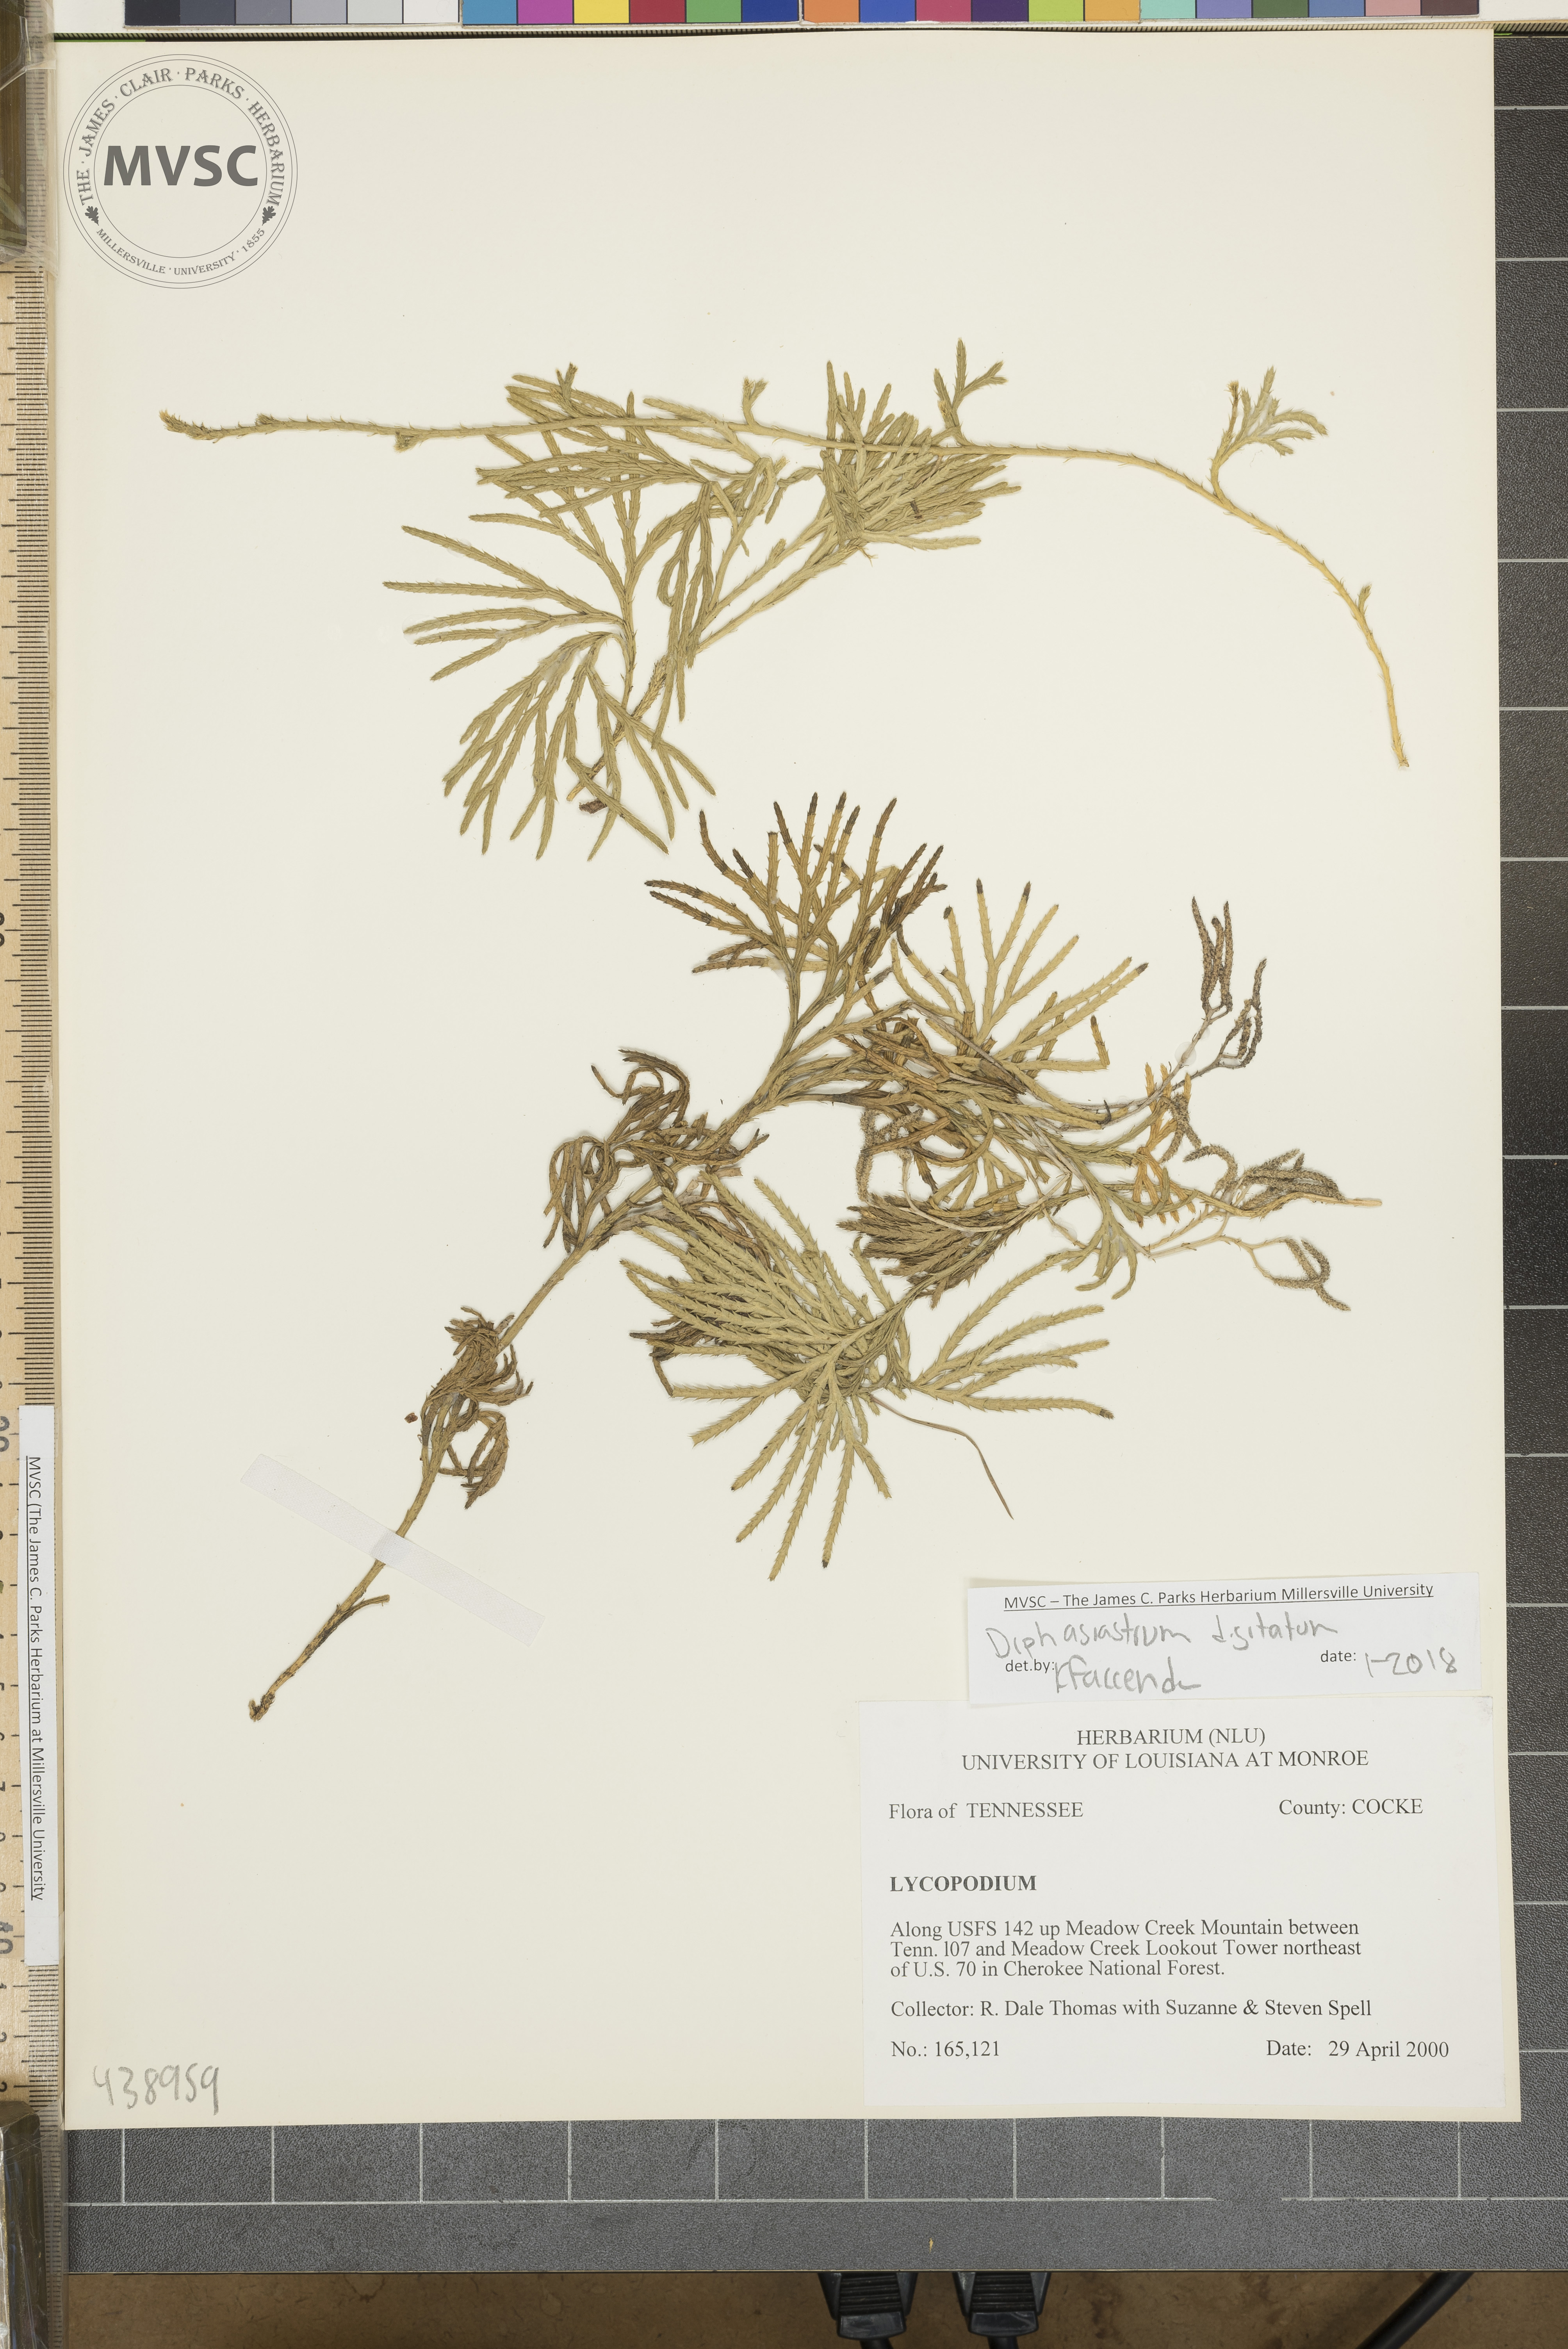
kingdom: Plantae
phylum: Tracheophyta
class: Lycopodiopsida
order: Lycopodiales
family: Lycopodiaceae
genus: Diphasiastrum
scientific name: Diphasiastrum digitatum
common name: Southern running-pine
